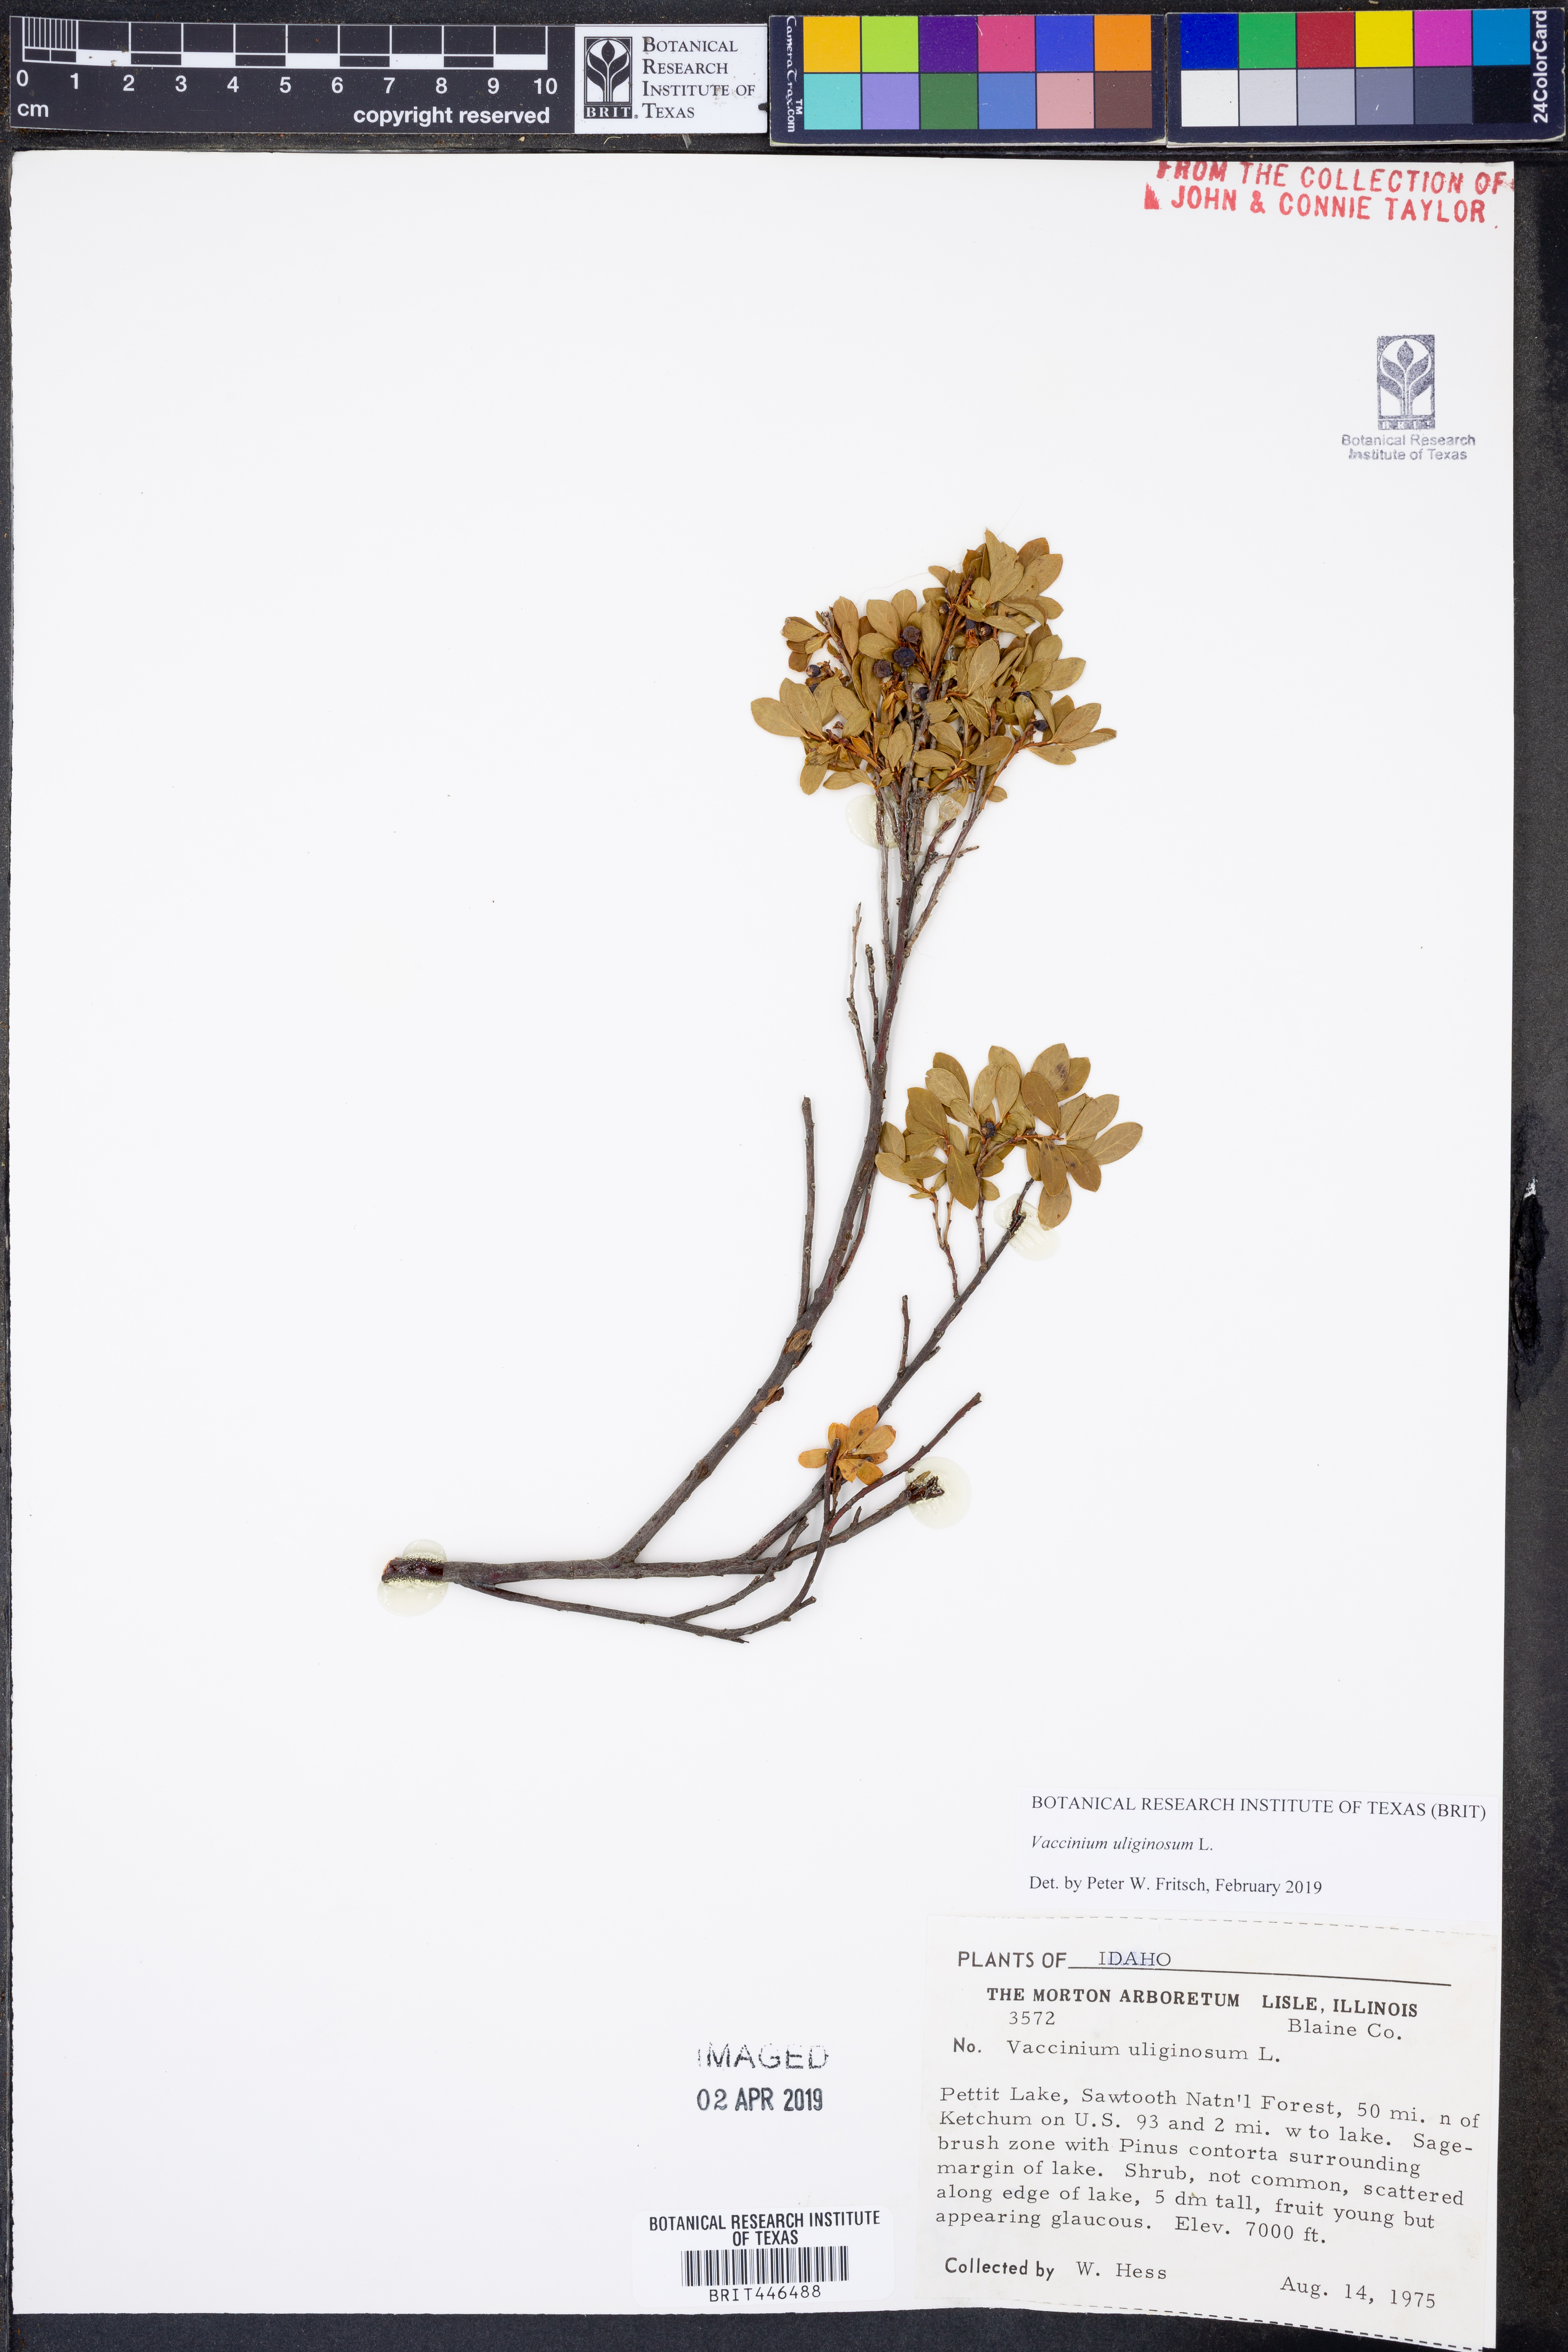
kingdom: Plantae
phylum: Tracheophyta
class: Magnoliopsida
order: Ericales
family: Ericaceae
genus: Vaccinium
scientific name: Vaccinium uliginosum
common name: Bog bilberry
